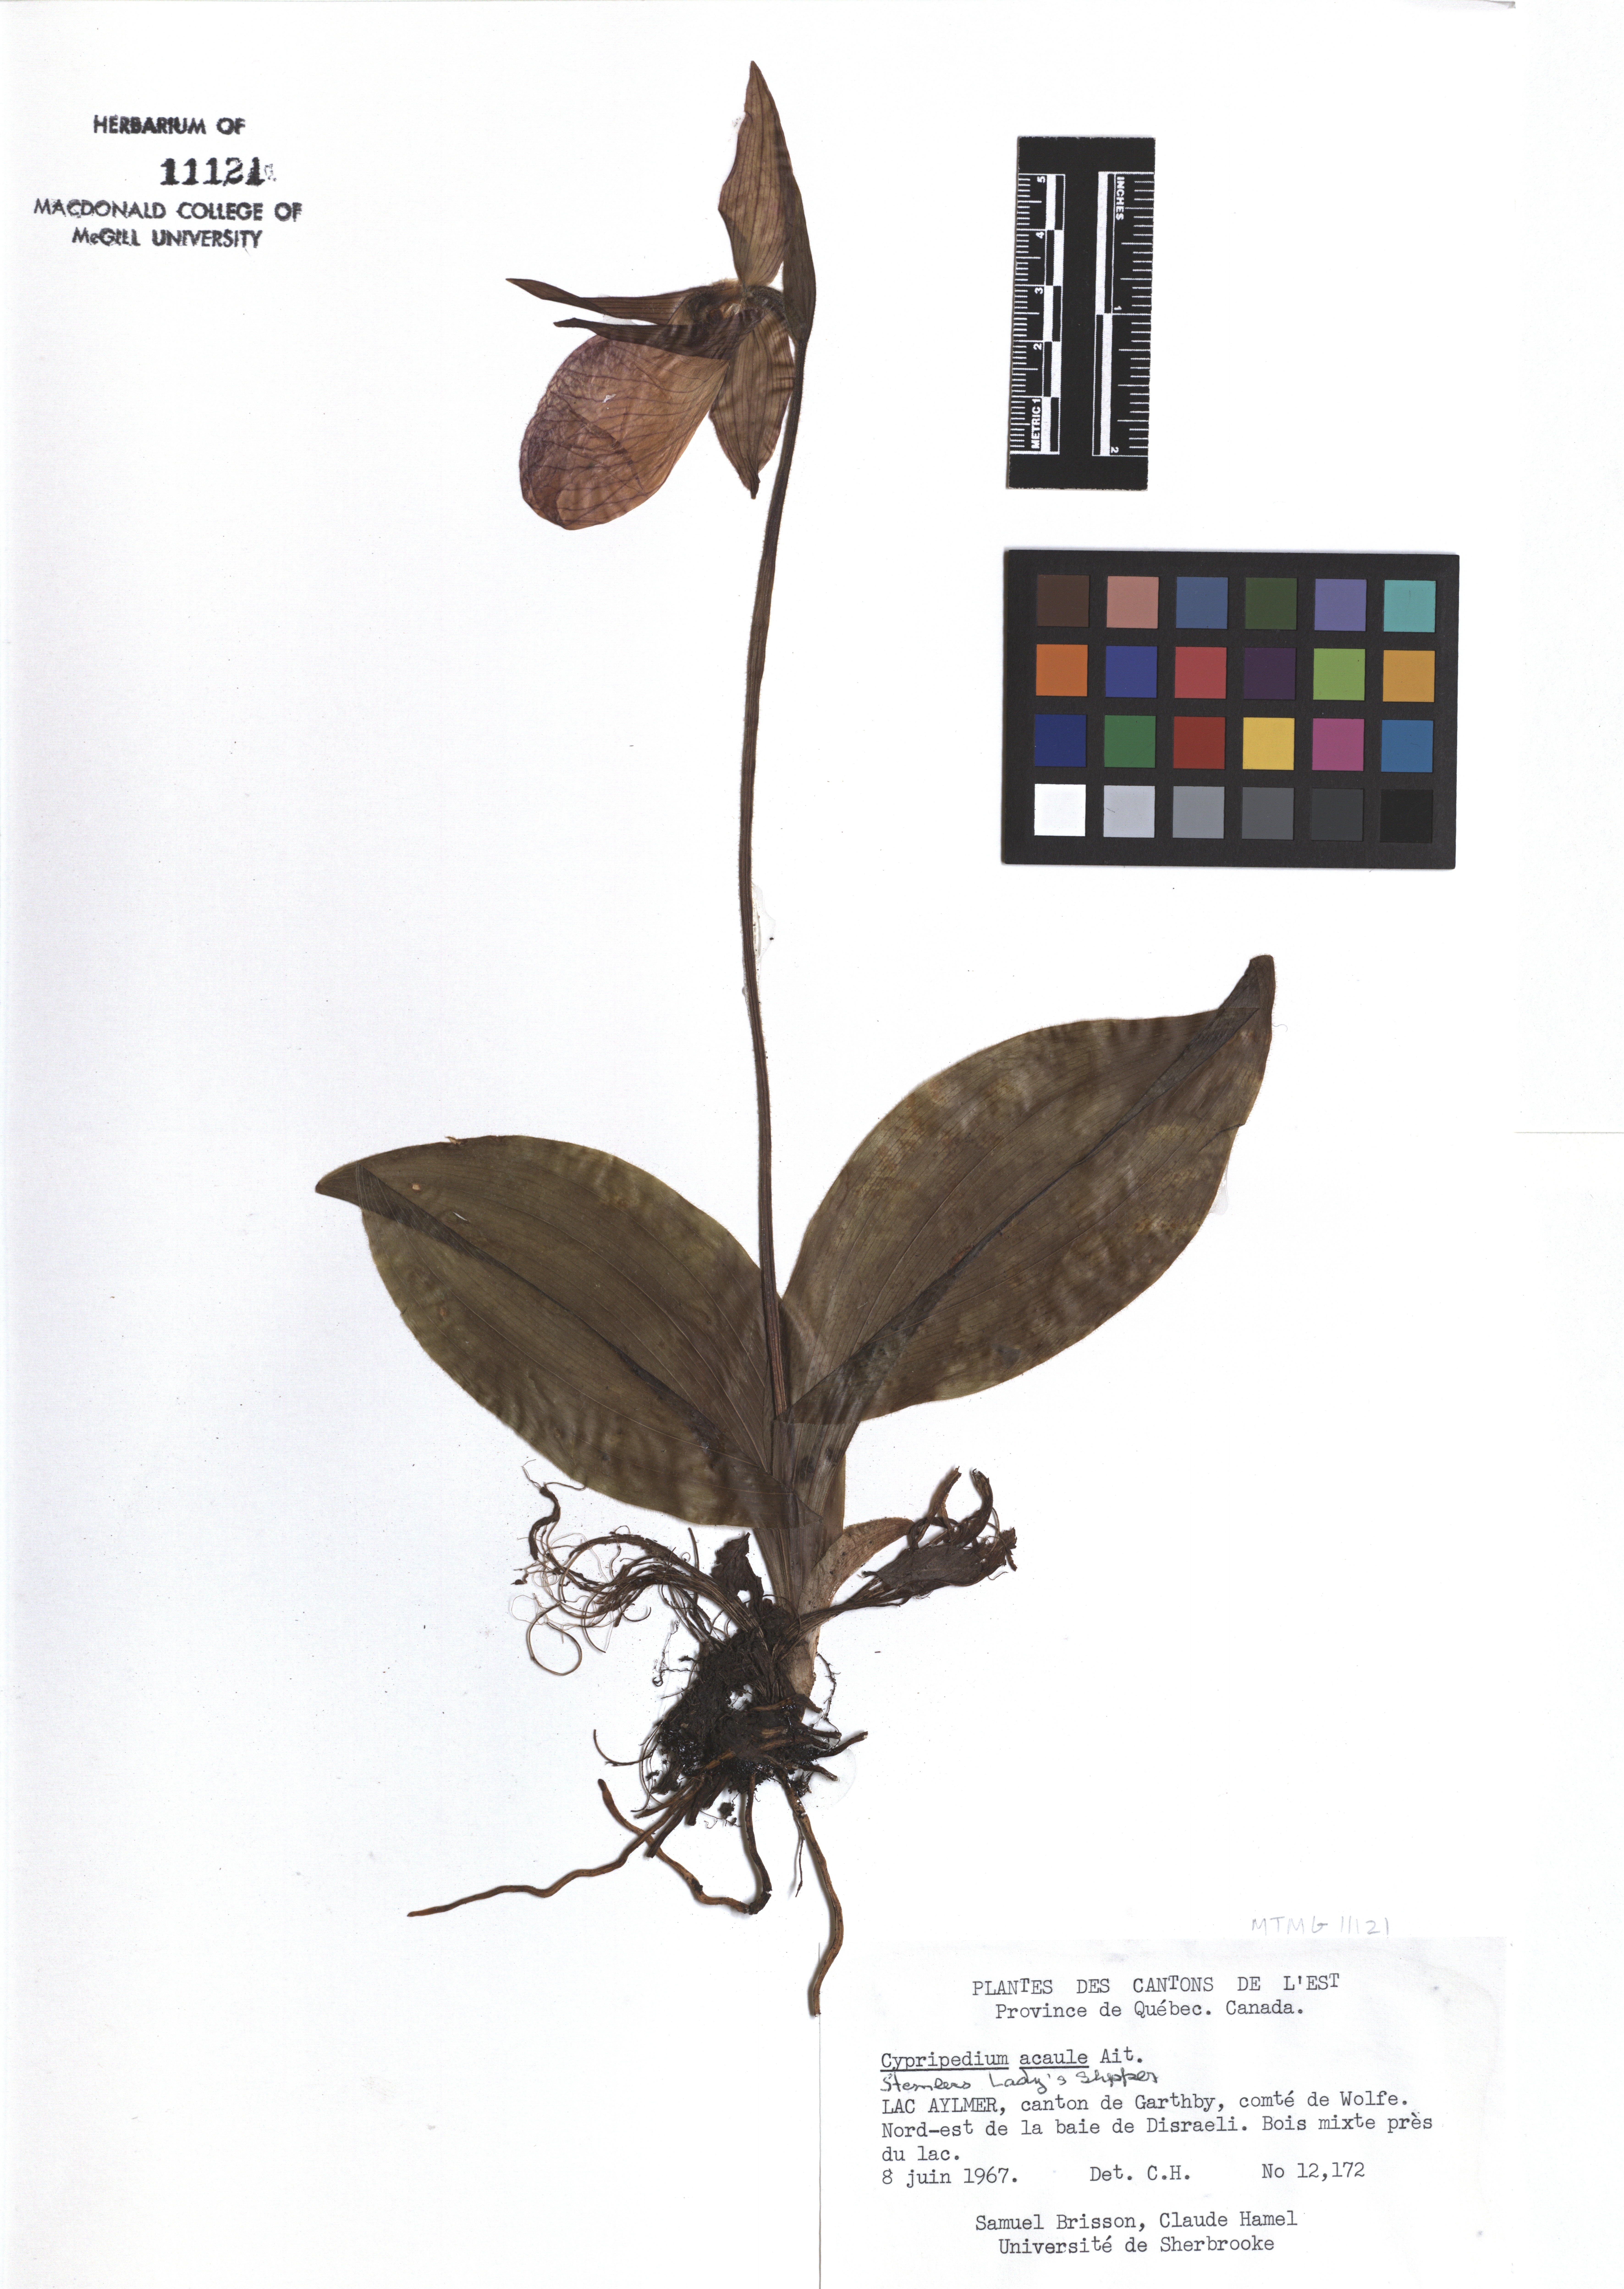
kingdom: Plantae
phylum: Tracheophyta
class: Liliopsida
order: Asparagales
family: Orchidaceae
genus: Cypripedium
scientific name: Cypripedium acaule
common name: Pink lady's-slipper
